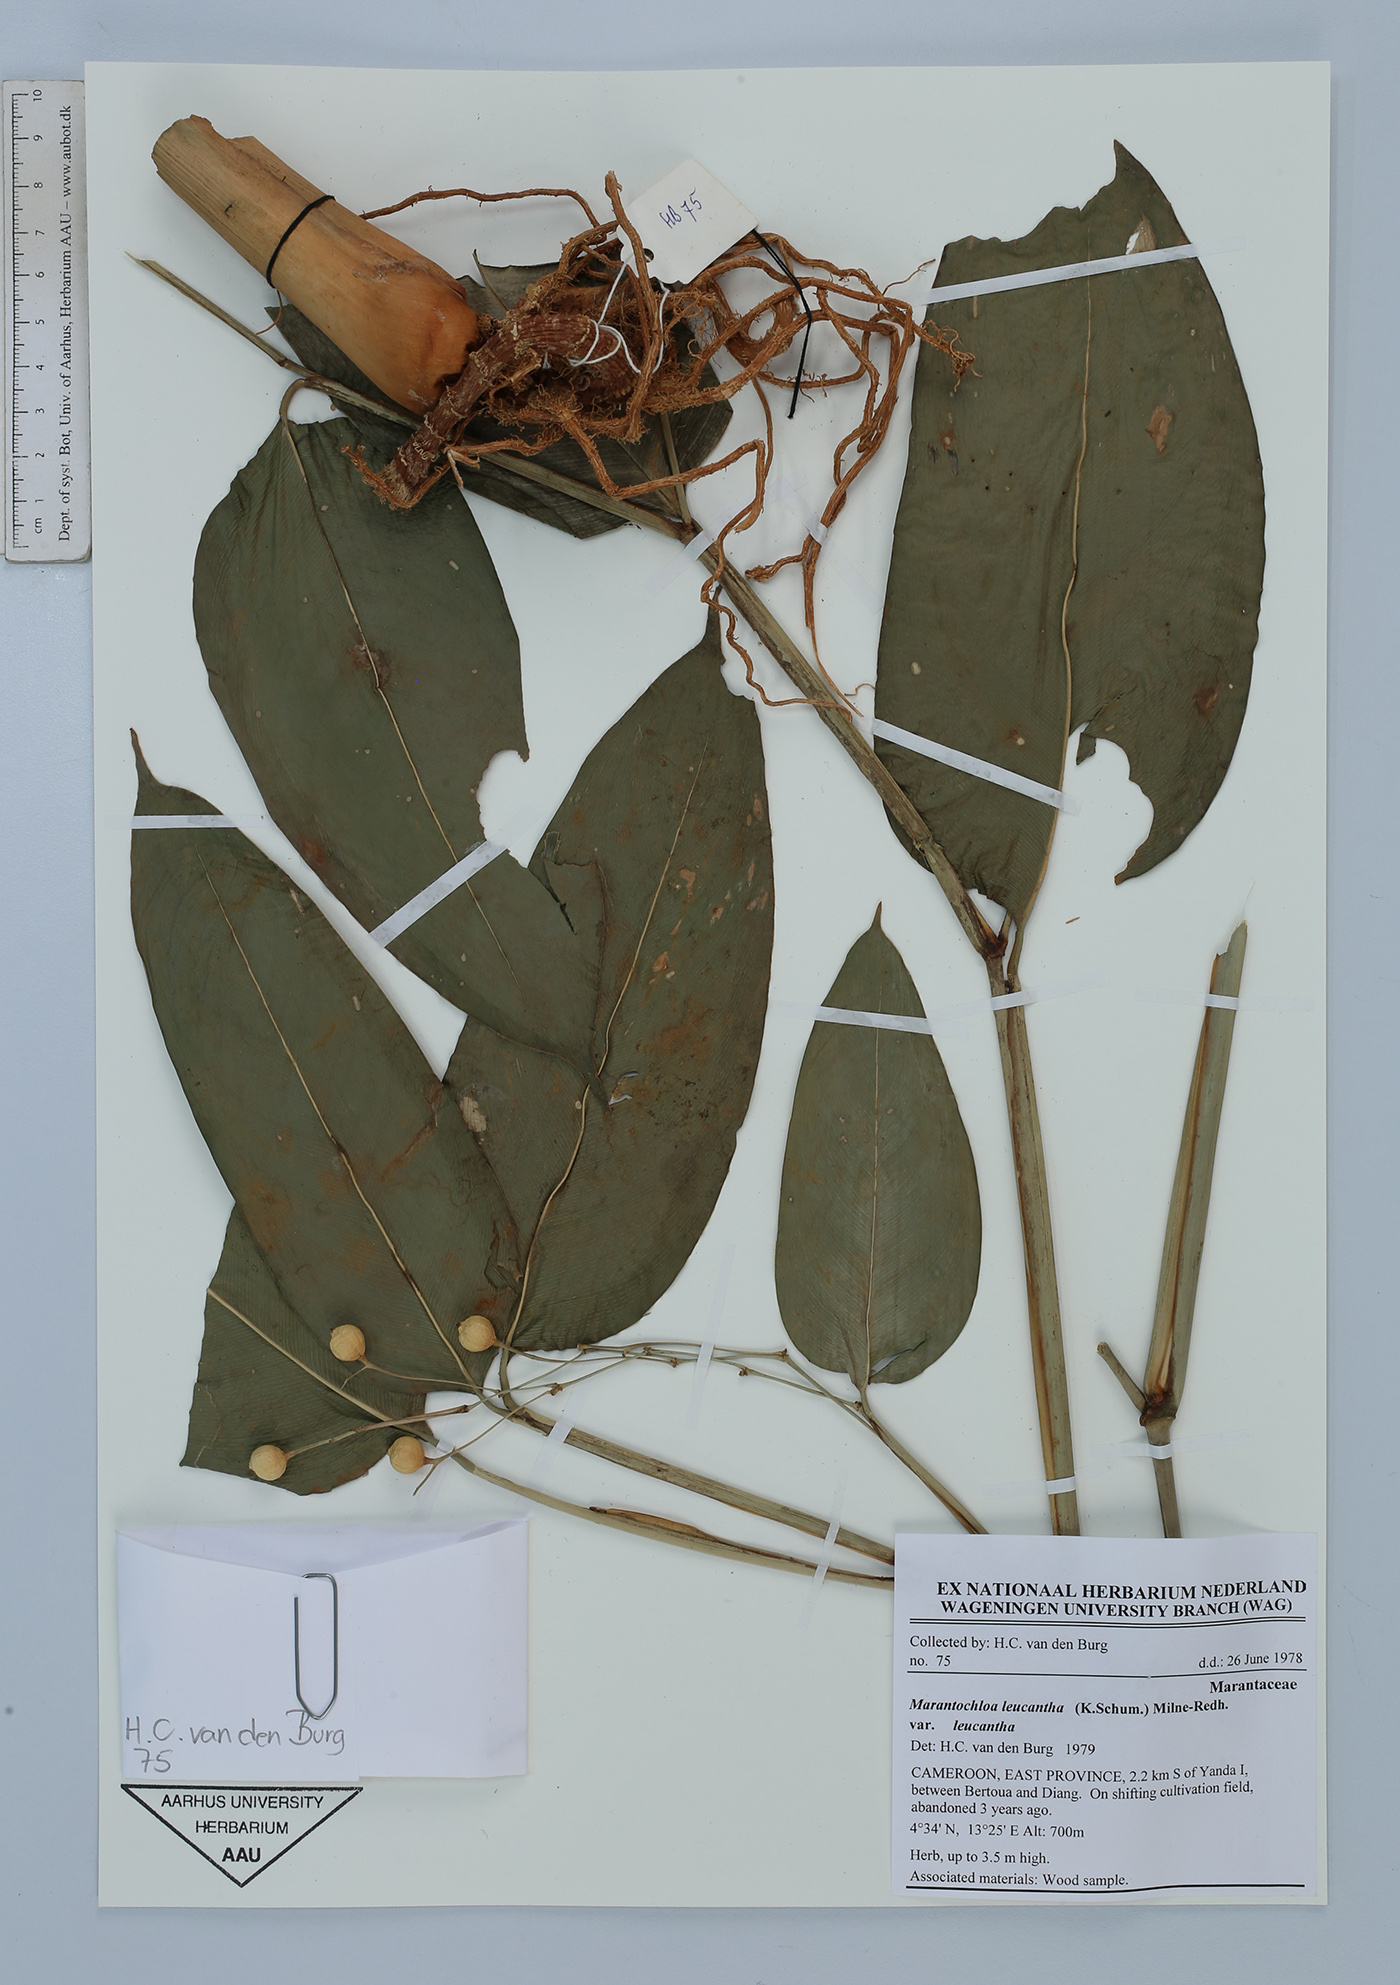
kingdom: Plantae
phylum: Tracheophyta
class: Liliopsida
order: Zingiberales
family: Marantaceae
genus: Marantochloa
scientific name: Marantochloa leucantha
